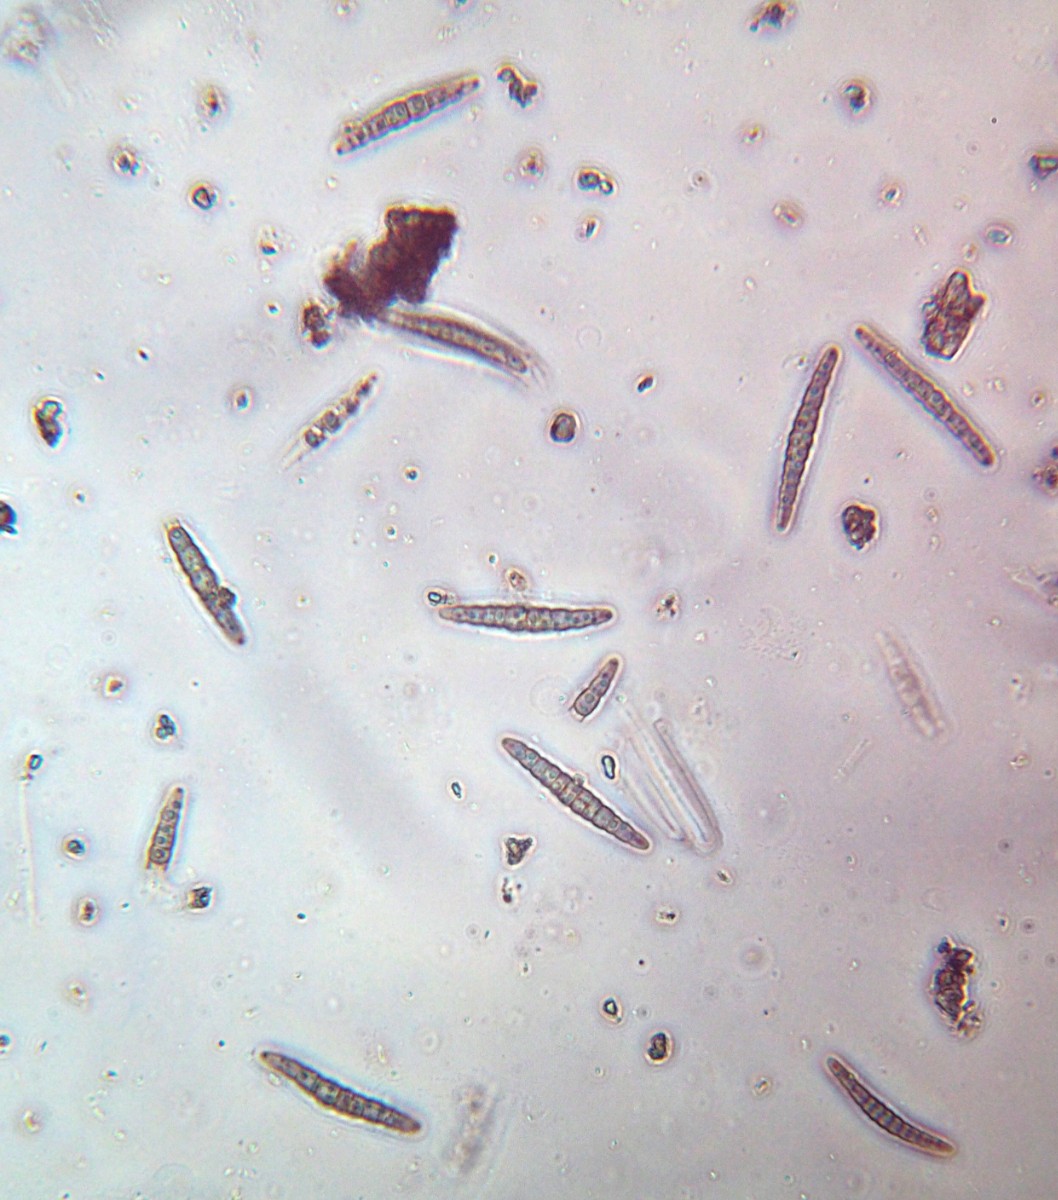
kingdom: Fungi
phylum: Ascomycota
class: Dothideomycetes
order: Pleosporales
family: Leptosphaeriaceae
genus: Leptosphaeria
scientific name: Leptosphaeria acuta
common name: spids kulkegle
